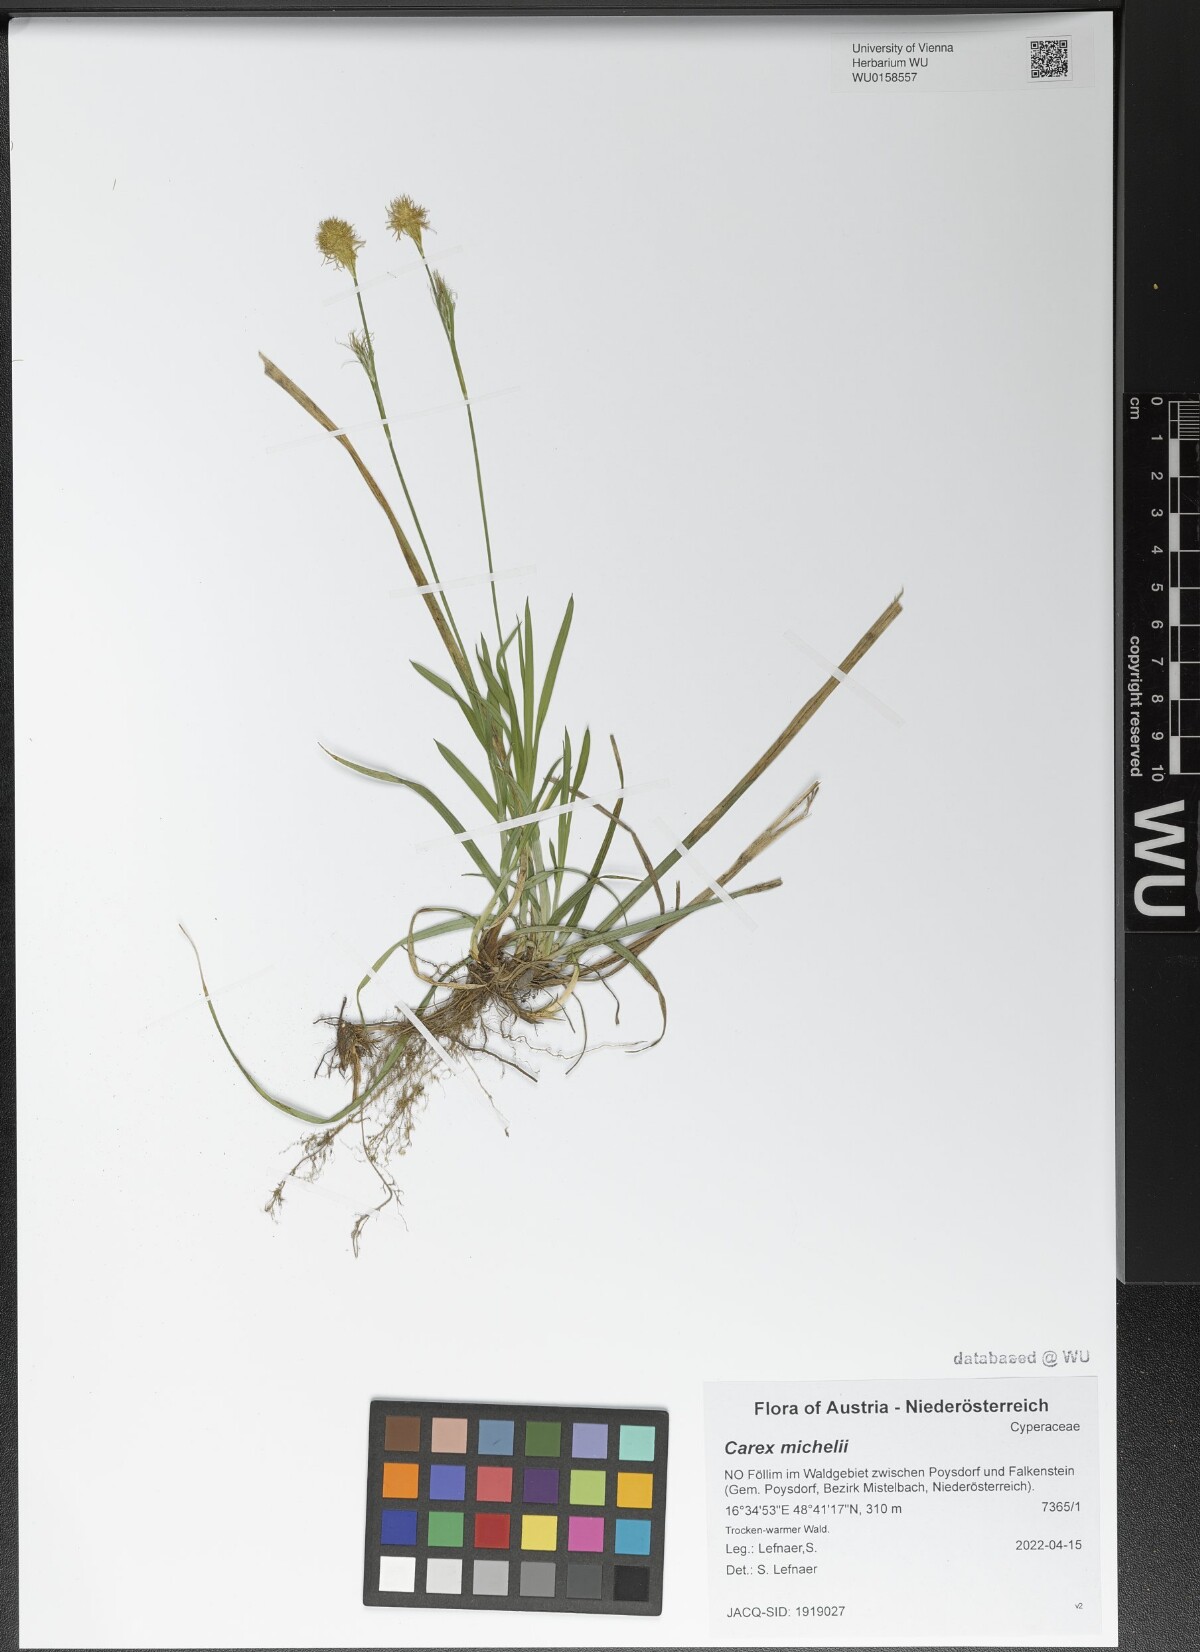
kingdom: Plantae
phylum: Tracheophyta
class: Liliopsida
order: Poales
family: Cyperaceae
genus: Carex
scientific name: Carex michelii
